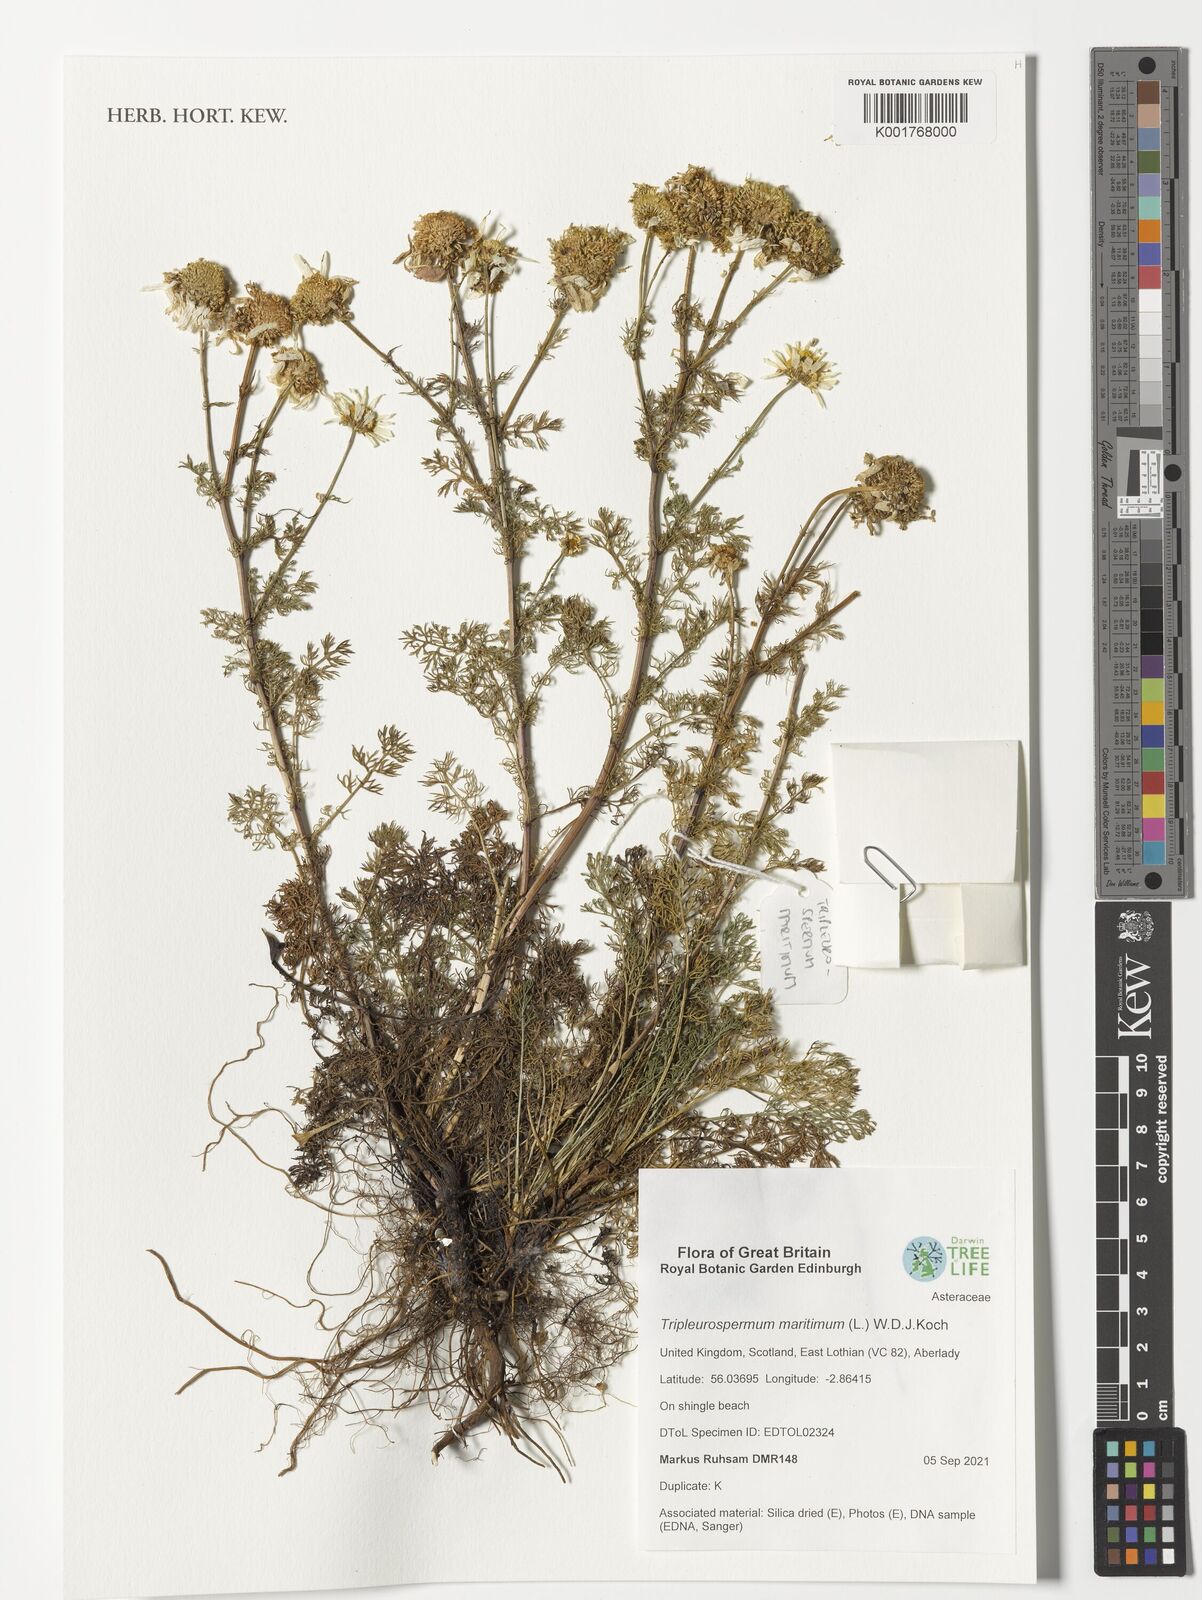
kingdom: Plantae
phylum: Tracheophyta
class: Magnoliopsida
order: Asterales
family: Asteraceae
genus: Tripleurospermum
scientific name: Tripleurospermum maritimum
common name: Sea mayweed
